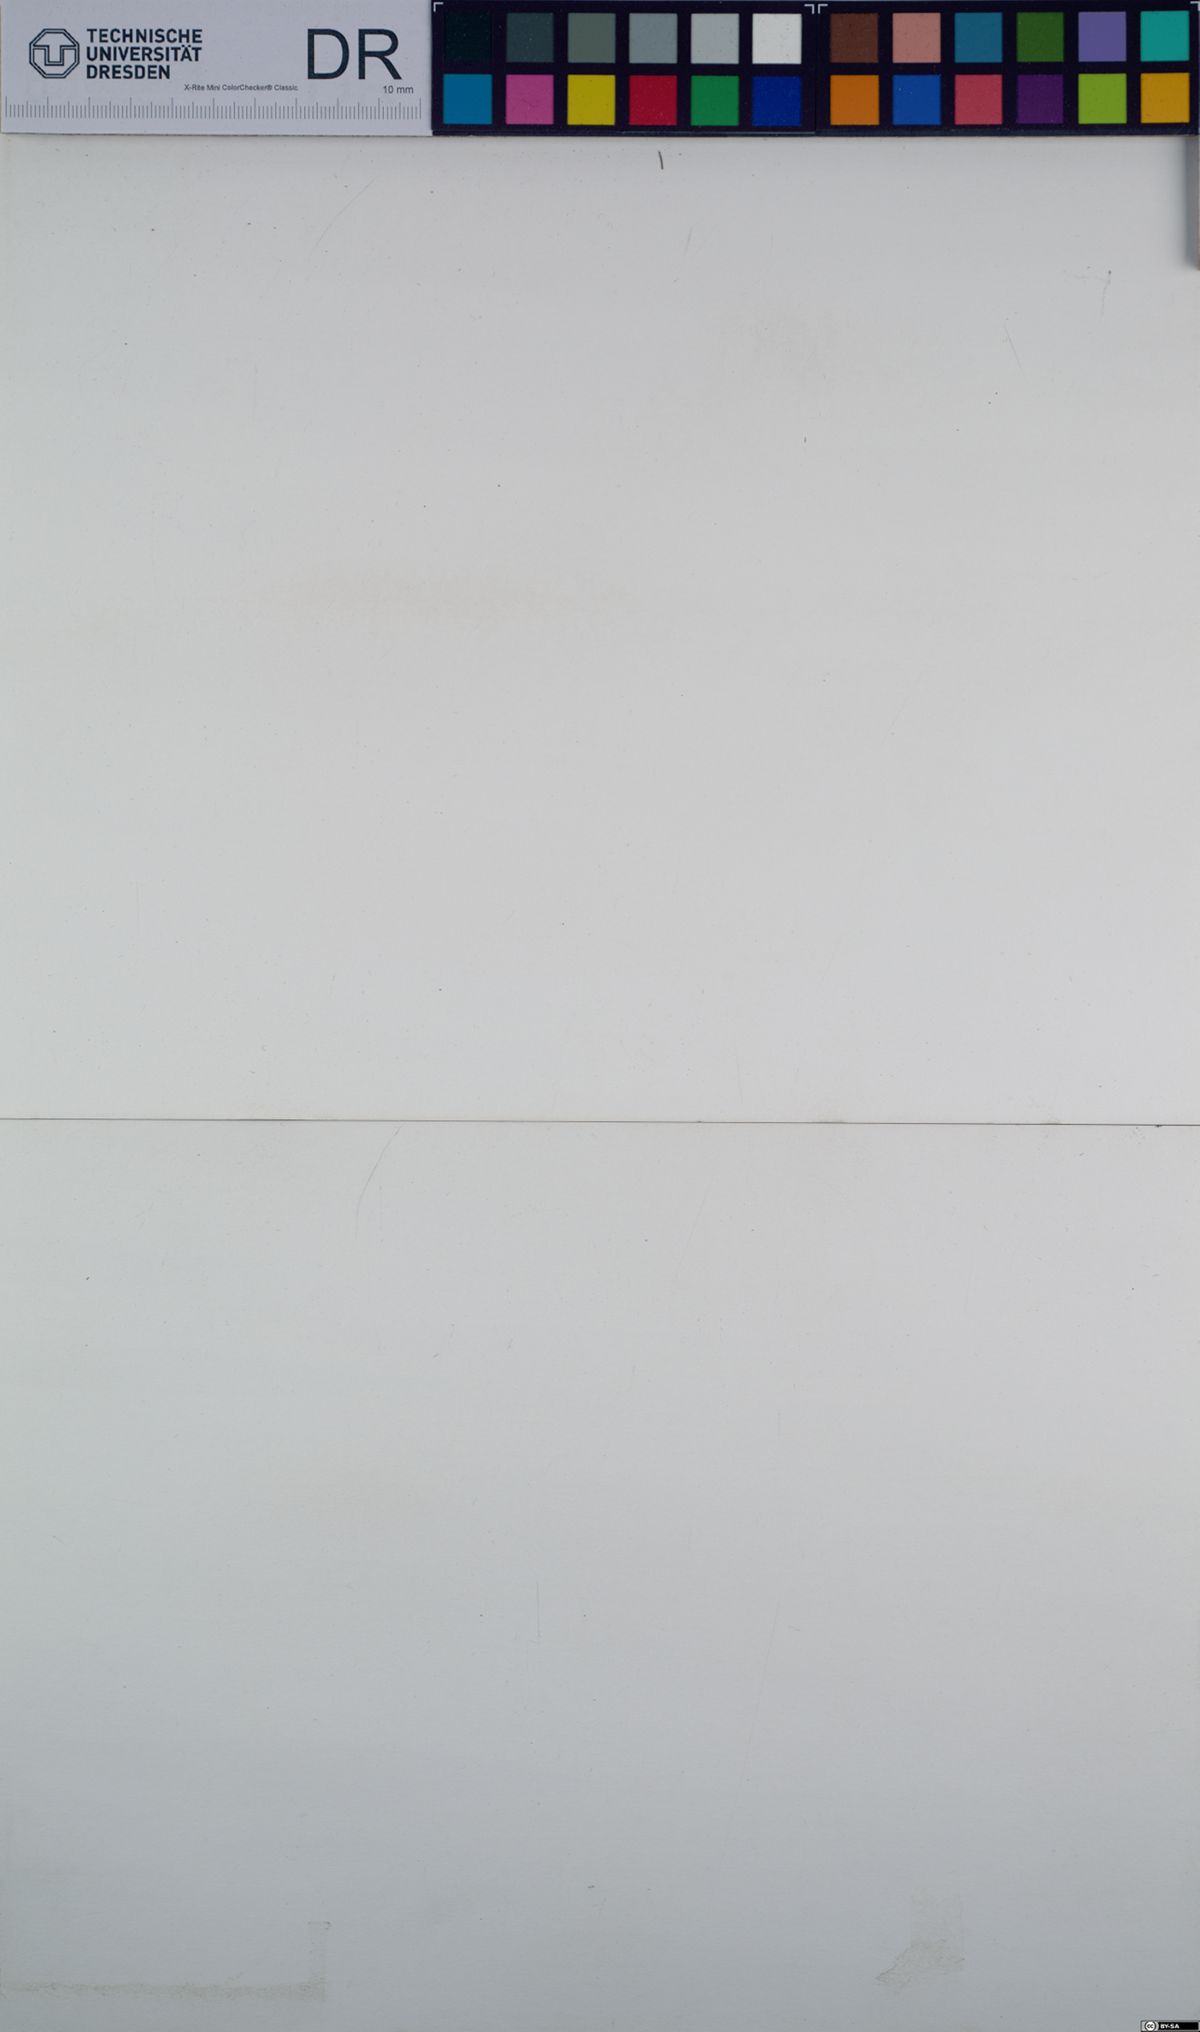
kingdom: Plantae
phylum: Tracheophyta
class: Liliopsida
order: Poales
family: Poaceae
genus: Poa
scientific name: Poa compressa
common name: Canada bluegrass
